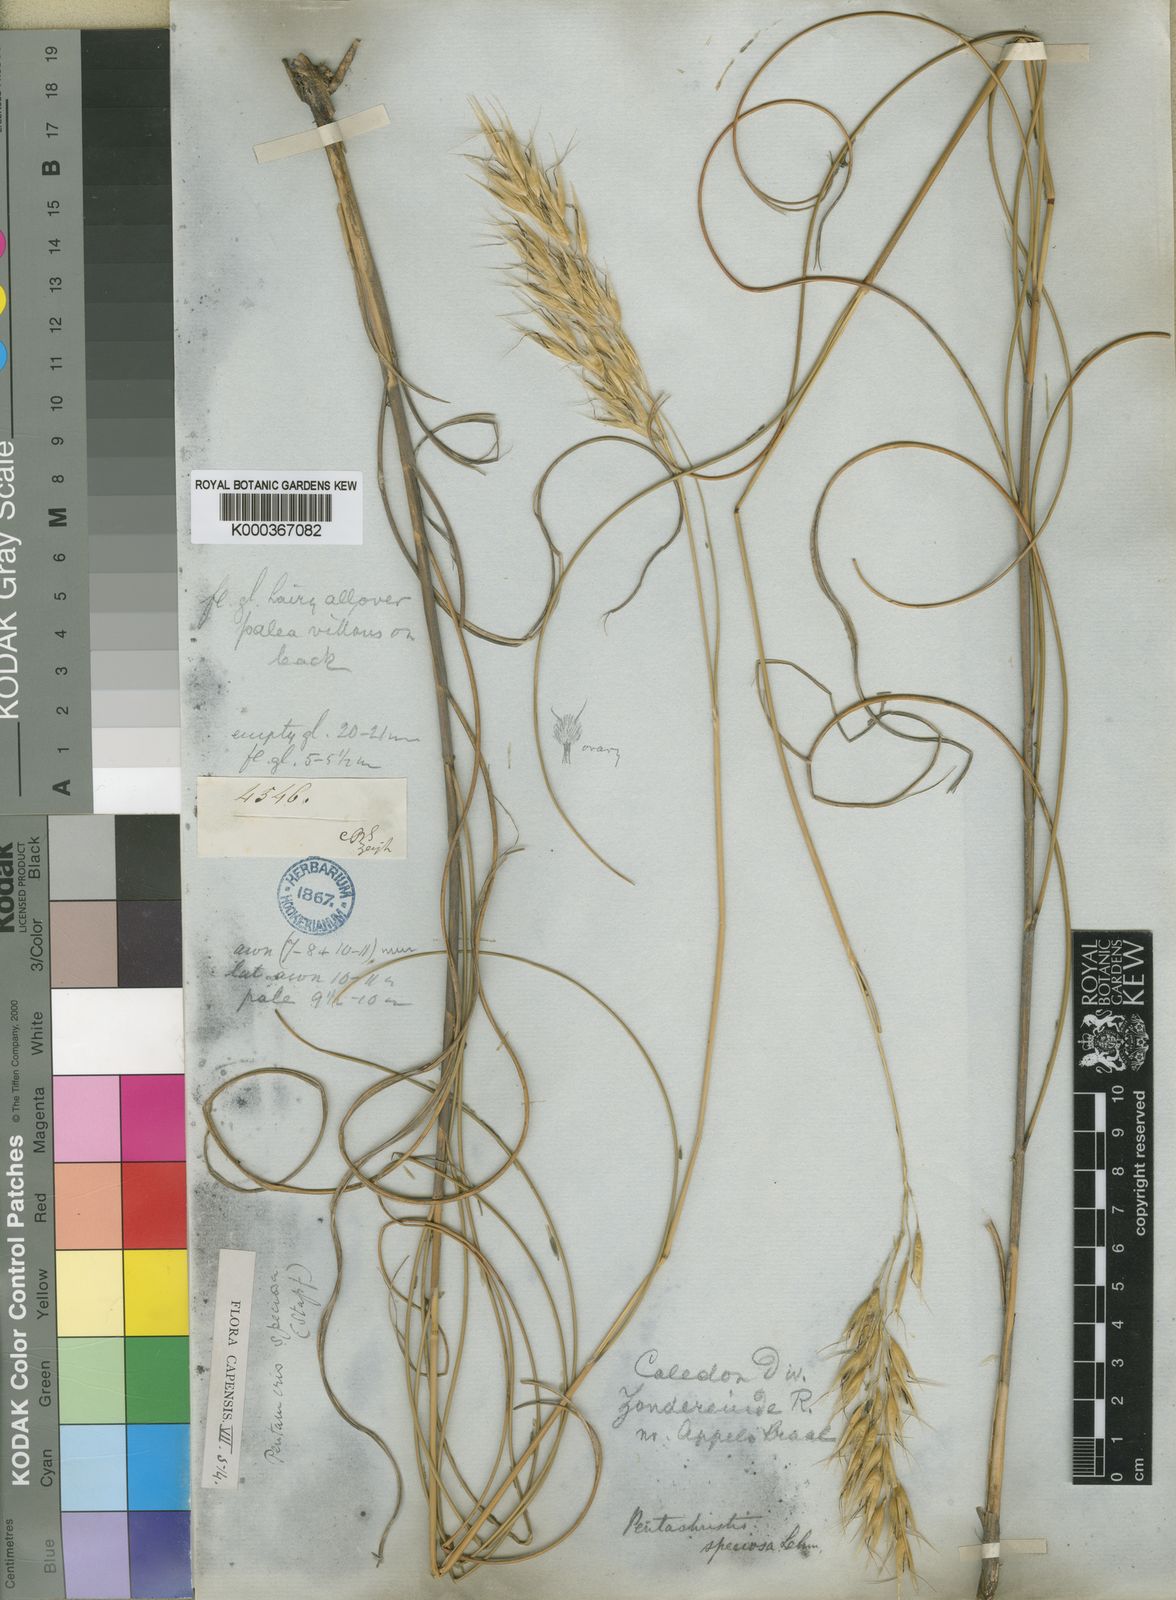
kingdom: Plantae
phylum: Tracheophyta
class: Liliopsida
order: Poales
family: Poaceae
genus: Pentameris
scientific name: Pentameris macrocalycina
